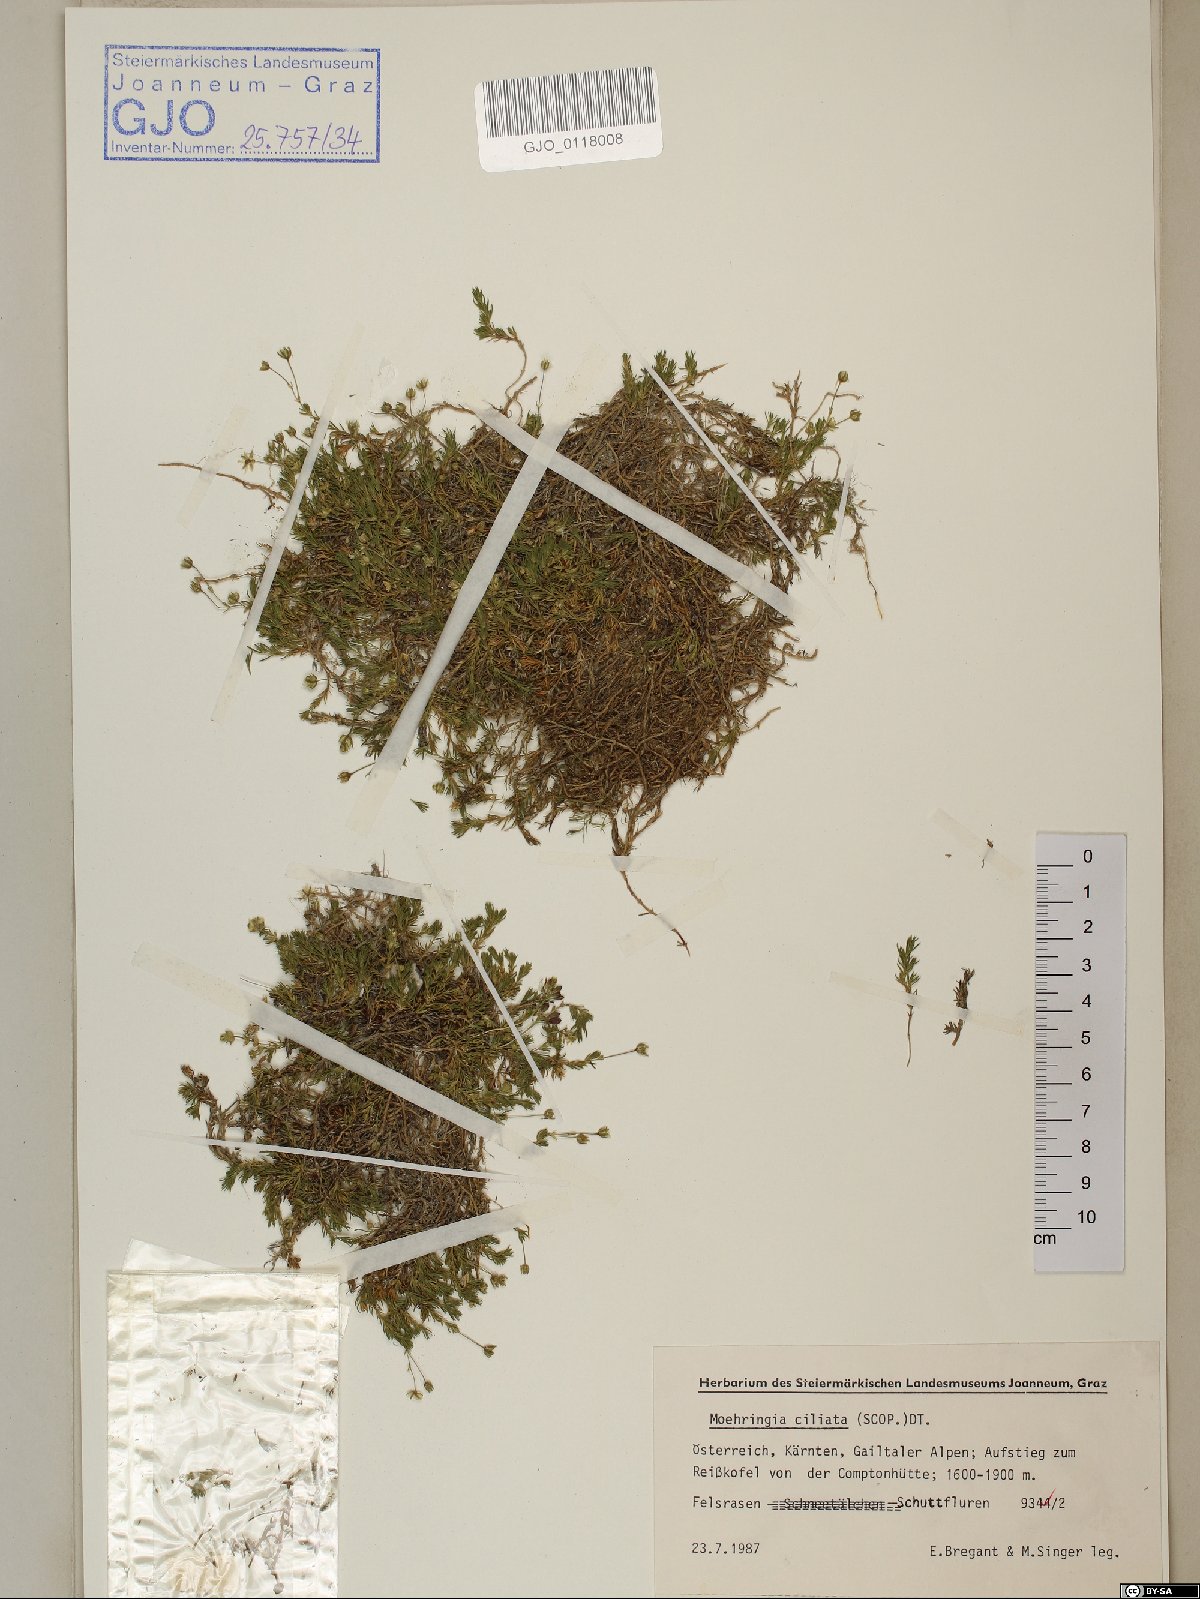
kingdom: Plantae
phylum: Tracheophyta
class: Magnoliopsida
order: Caryophyllales
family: Caryophyllaceae
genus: Moehringia
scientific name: Moehringia ciliata
